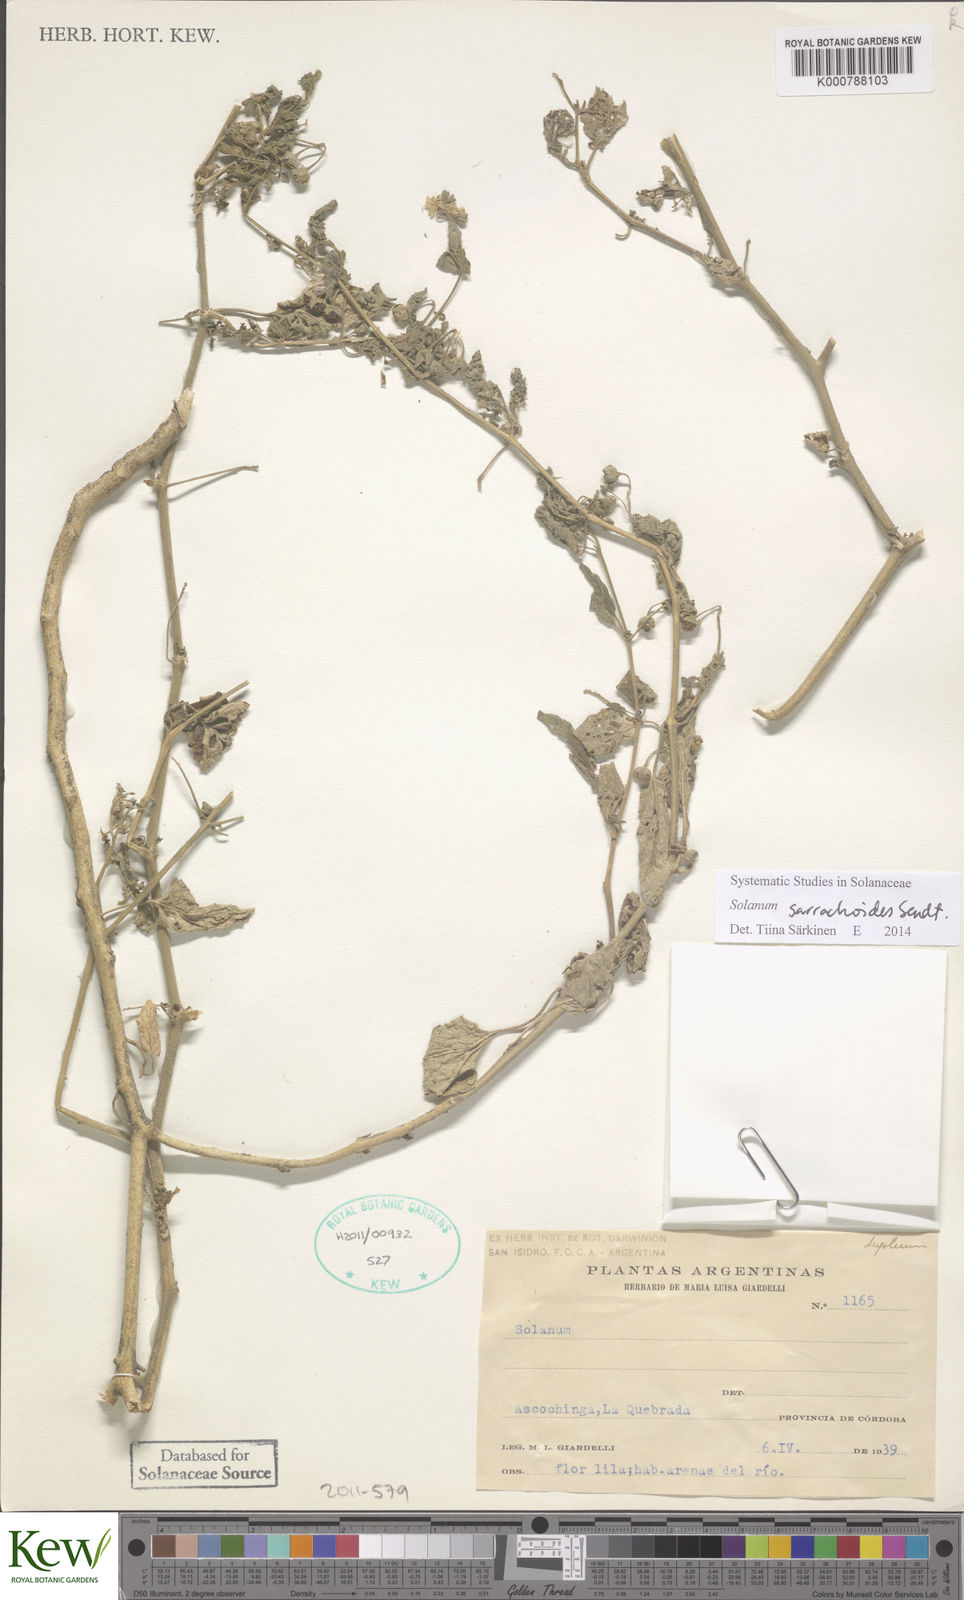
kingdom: Plantae
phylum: Tracheophyta
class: Magnoliopsida
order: Solanales
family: Solanaceae
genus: Solanum
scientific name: Solanum tweedieanum
